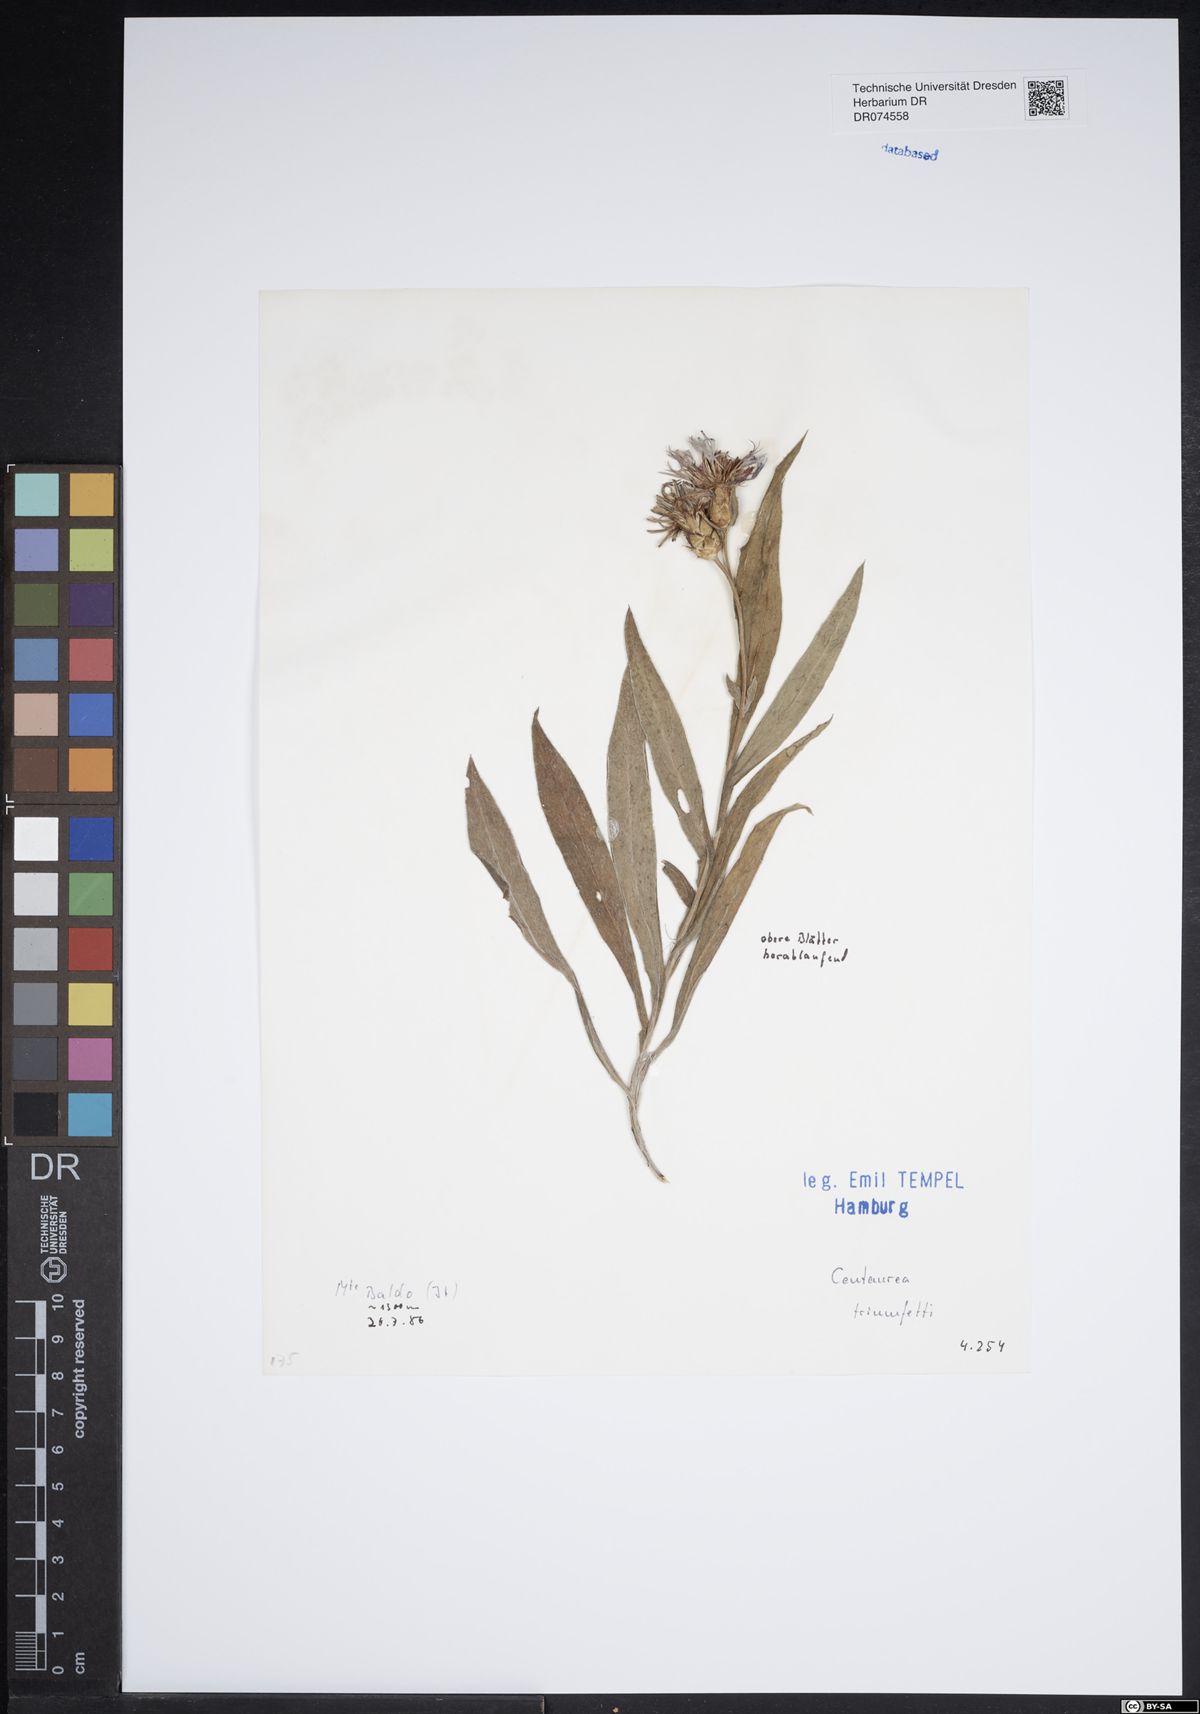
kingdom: Plantae
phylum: Tracheophyta
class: Magnoliopsida
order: Asterales
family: Asteraceae
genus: Centaurea
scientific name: Centaurea triumfettii
